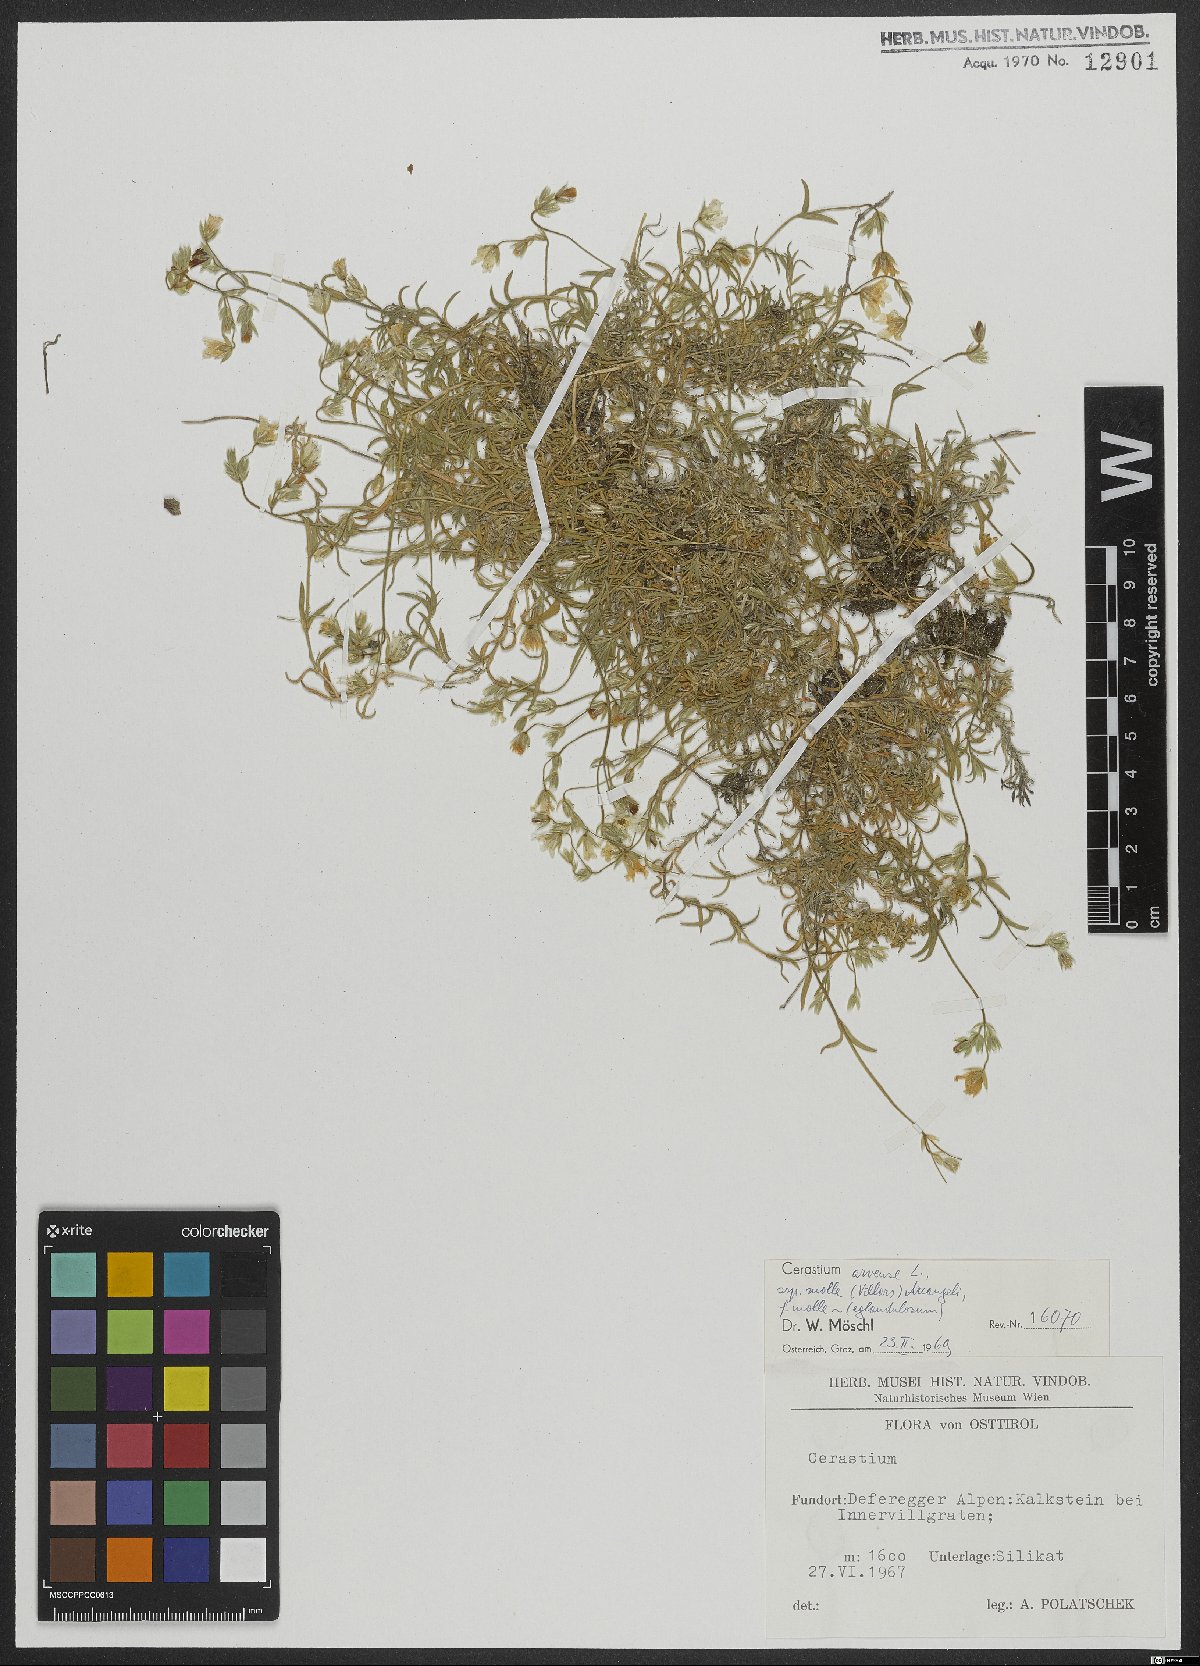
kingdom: Plantae
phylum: Tracheophyta
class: Magnoliopsida
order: Caryophyllales
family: Caryophyllaceae
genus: Cerastium
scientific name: Cerastium arvense
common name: Field mouse-ear
